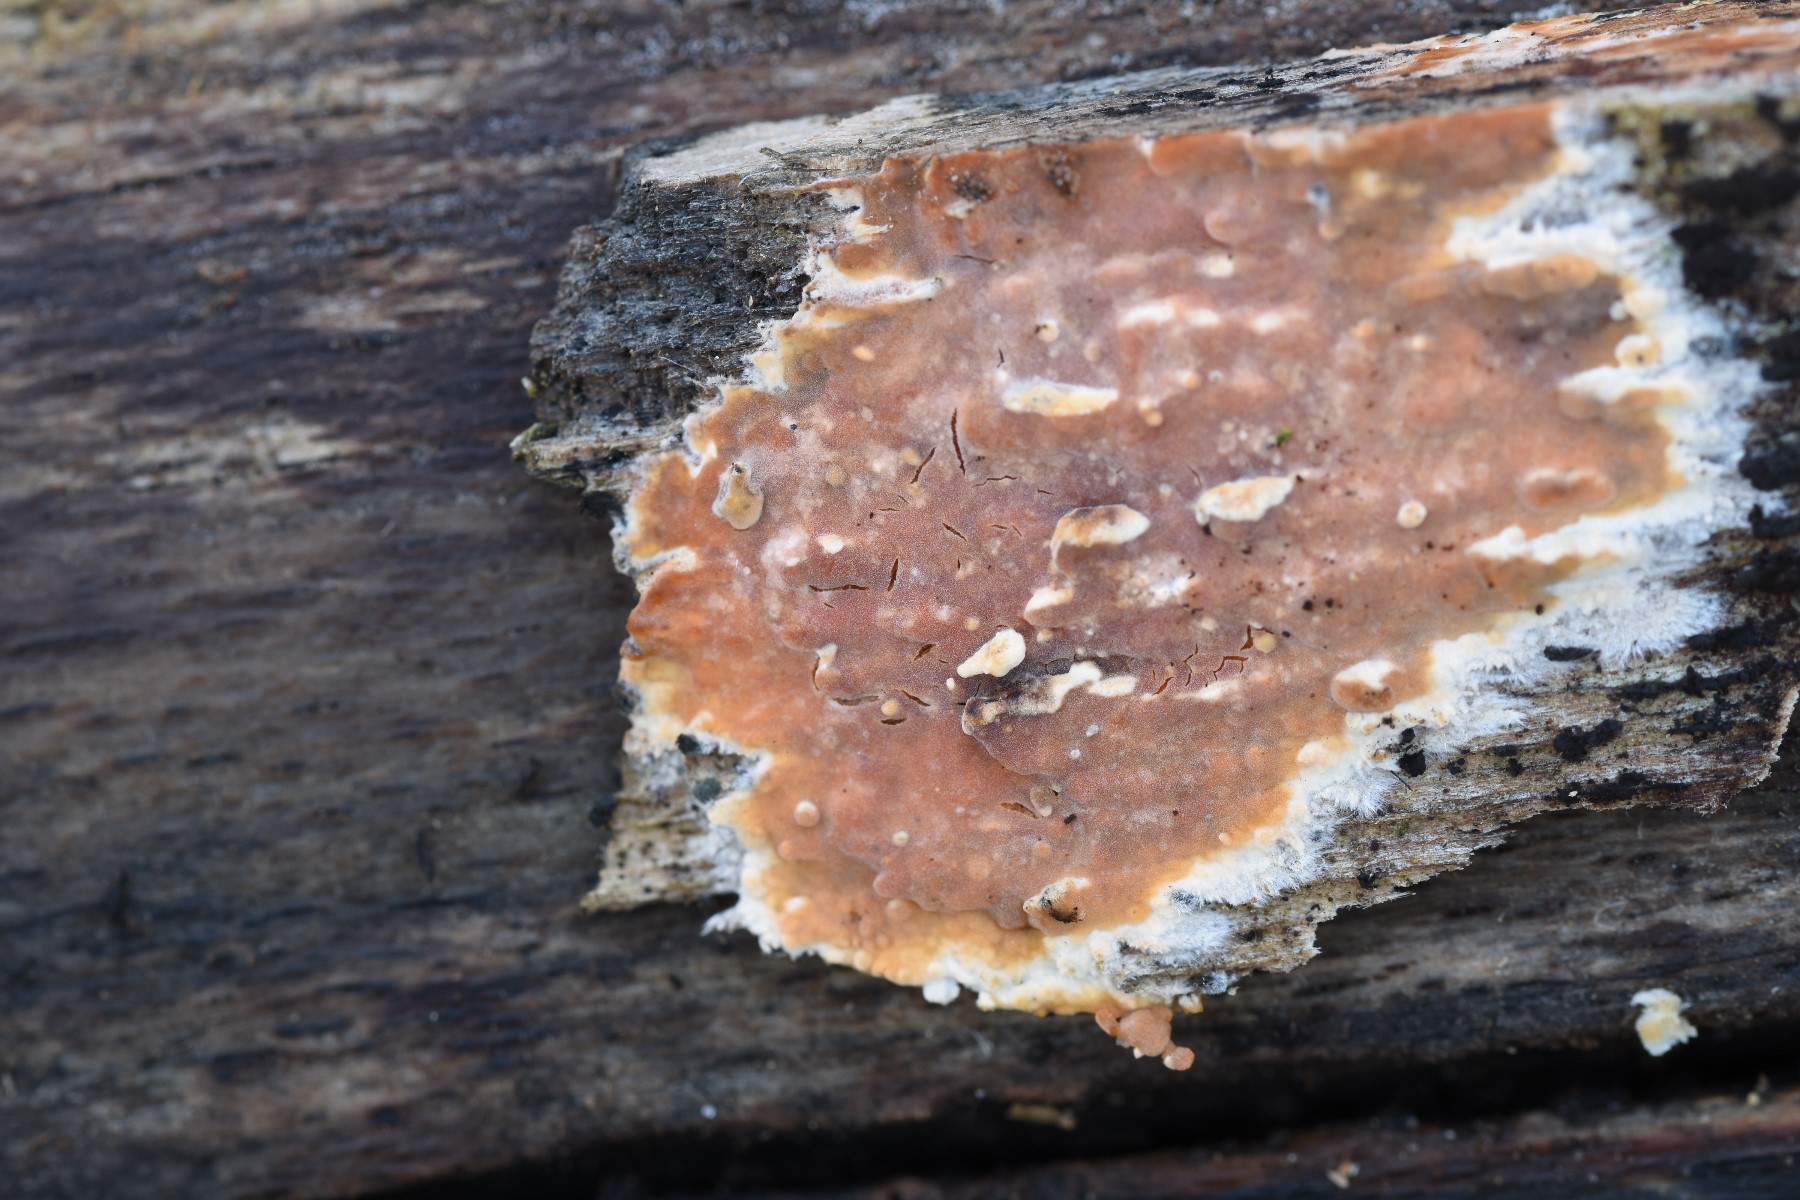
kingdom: Fungi
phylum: Basidiomycota
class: Agaricomycetes
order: Russulales
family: Peniophoraceae
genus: Peniophora
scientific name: Peniophora incarnata
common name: laksefarvet voksskind
